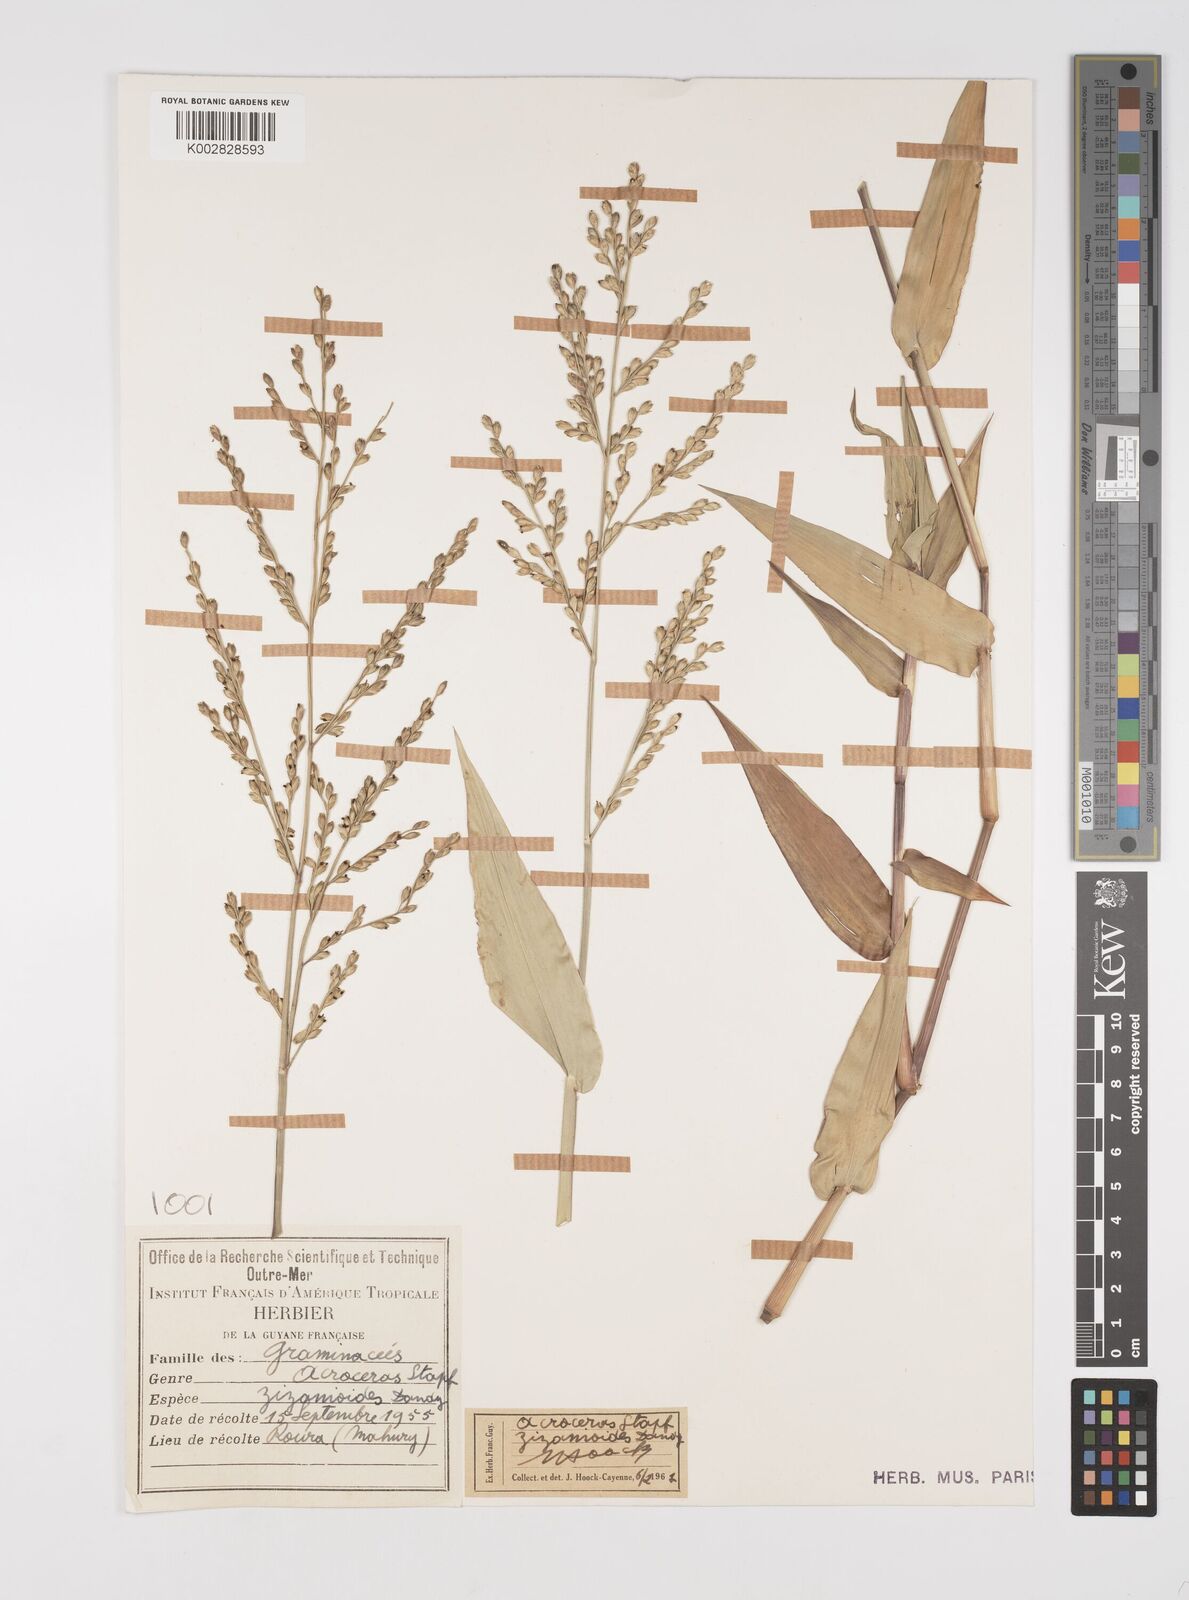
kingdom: Plantae
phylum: Tracheophyta
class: Liliopsida
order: Poales
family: Poaceae
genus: Acroceras
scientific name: Acroceras zizanioides
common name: Oat grass
